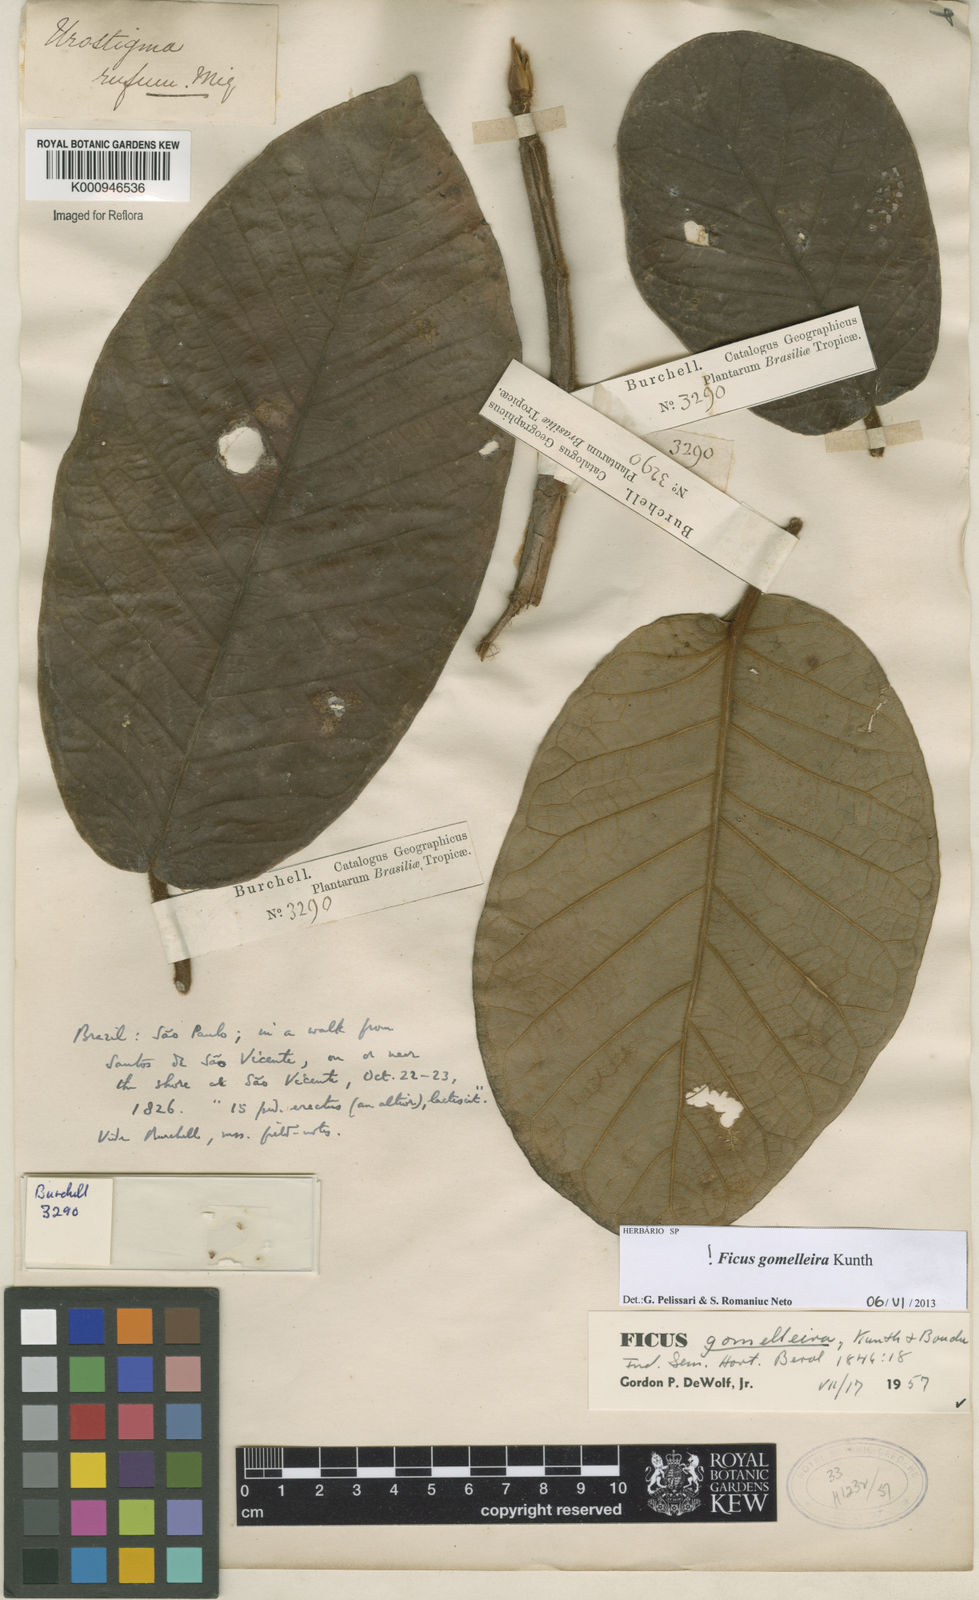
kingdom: Plantae
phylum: Tracheophyta
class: Magnoliopsida
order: Rosales
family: Moraceae
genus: Ficus
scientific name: Ficus gomelleira
